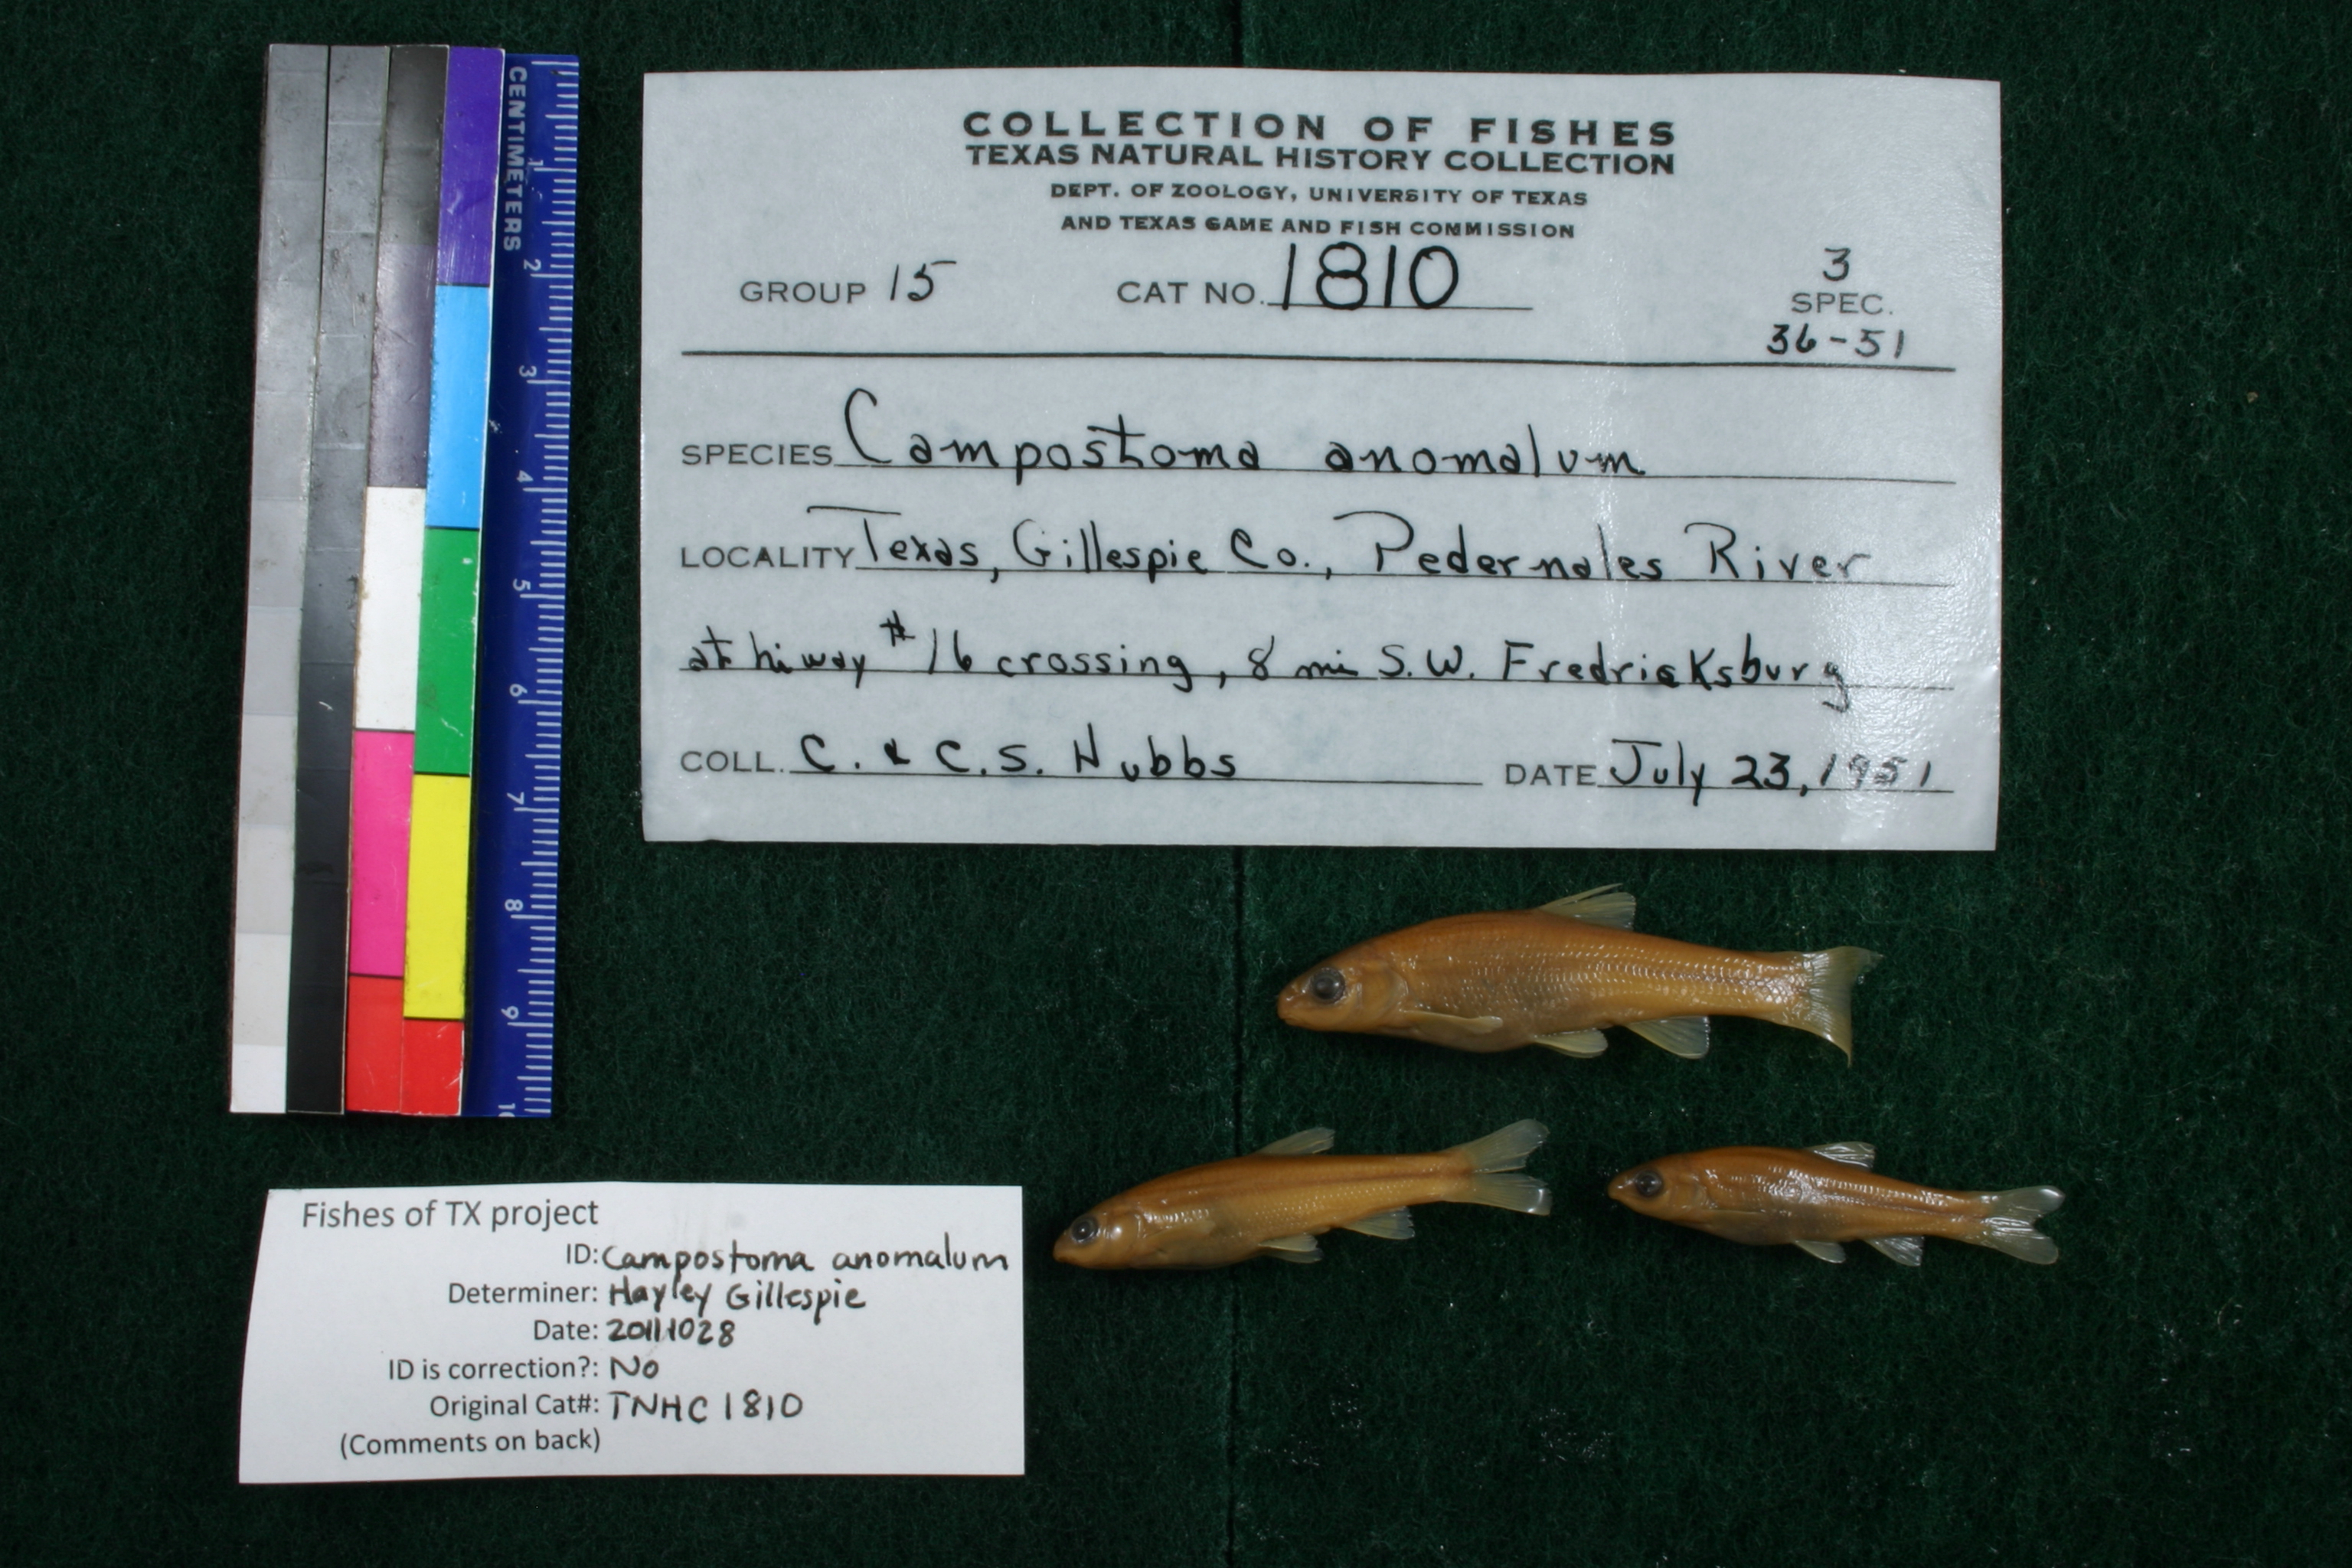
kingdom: Animalia
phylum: Chordata
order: Cypriniformes
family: Cyprinidae
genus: Campostoma
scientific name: Campostoma anomalum
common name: Central stoneroller
